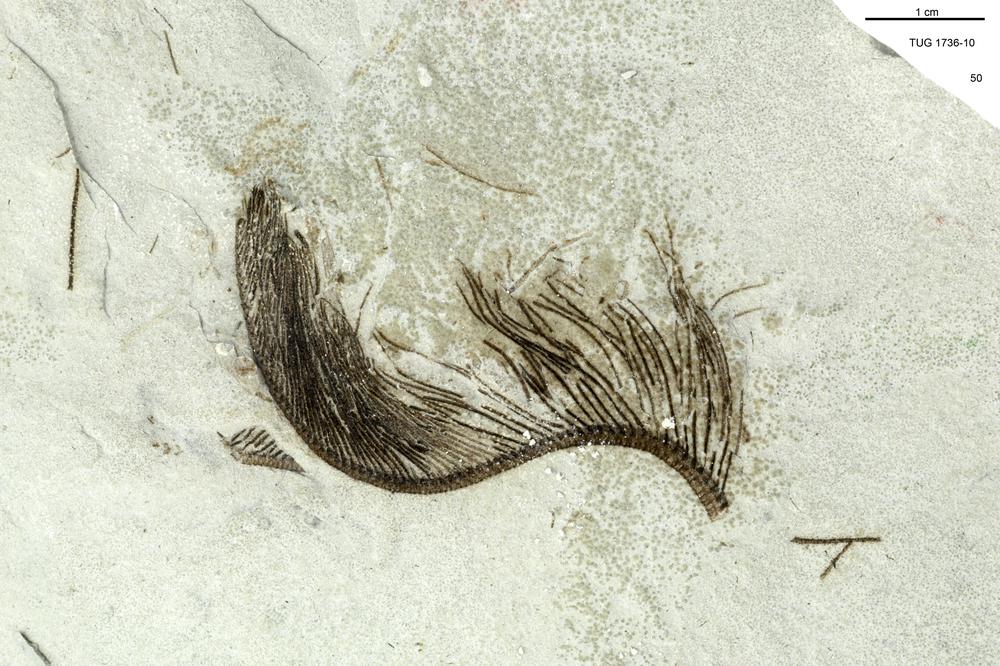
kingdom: Animalia
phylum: Echinodermata
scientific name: Echinodermata
